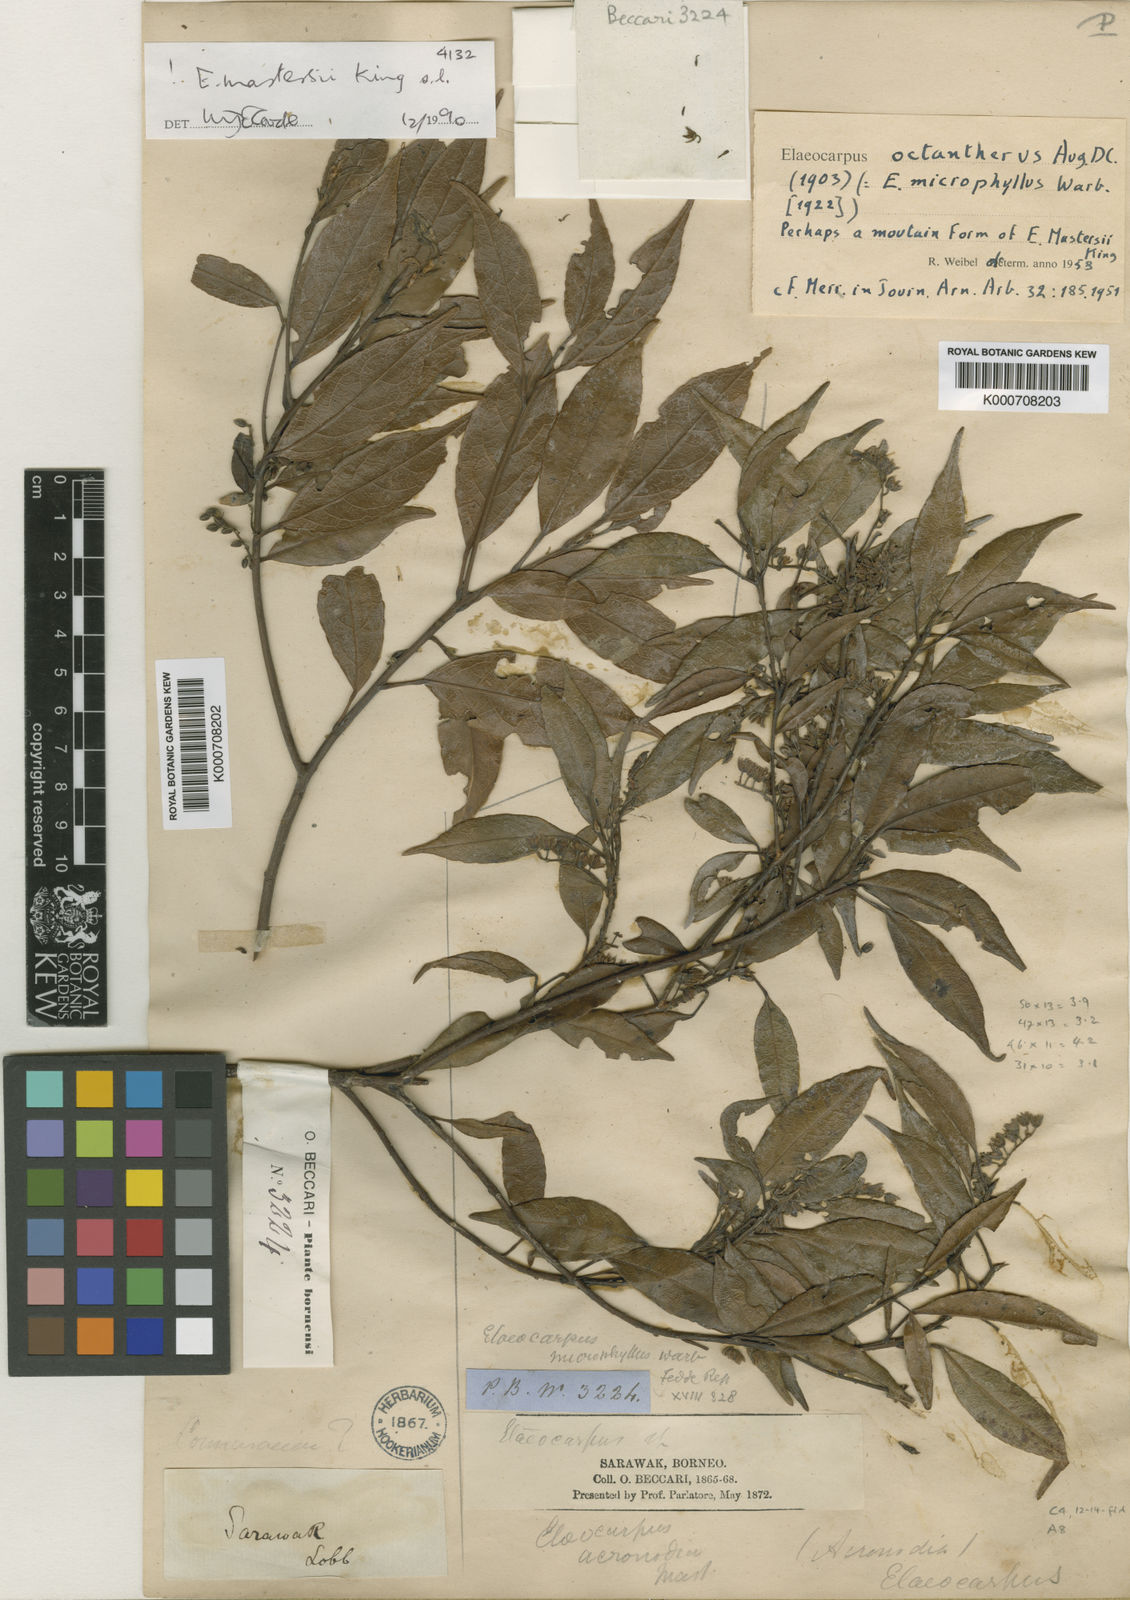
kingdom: Plantae
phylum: Tracheophyta
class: Magnoliopsida
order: Oxalidales
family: Elaeocarpaceae
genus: Elaeocarpus
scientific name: Elaeocarpus mastersii
